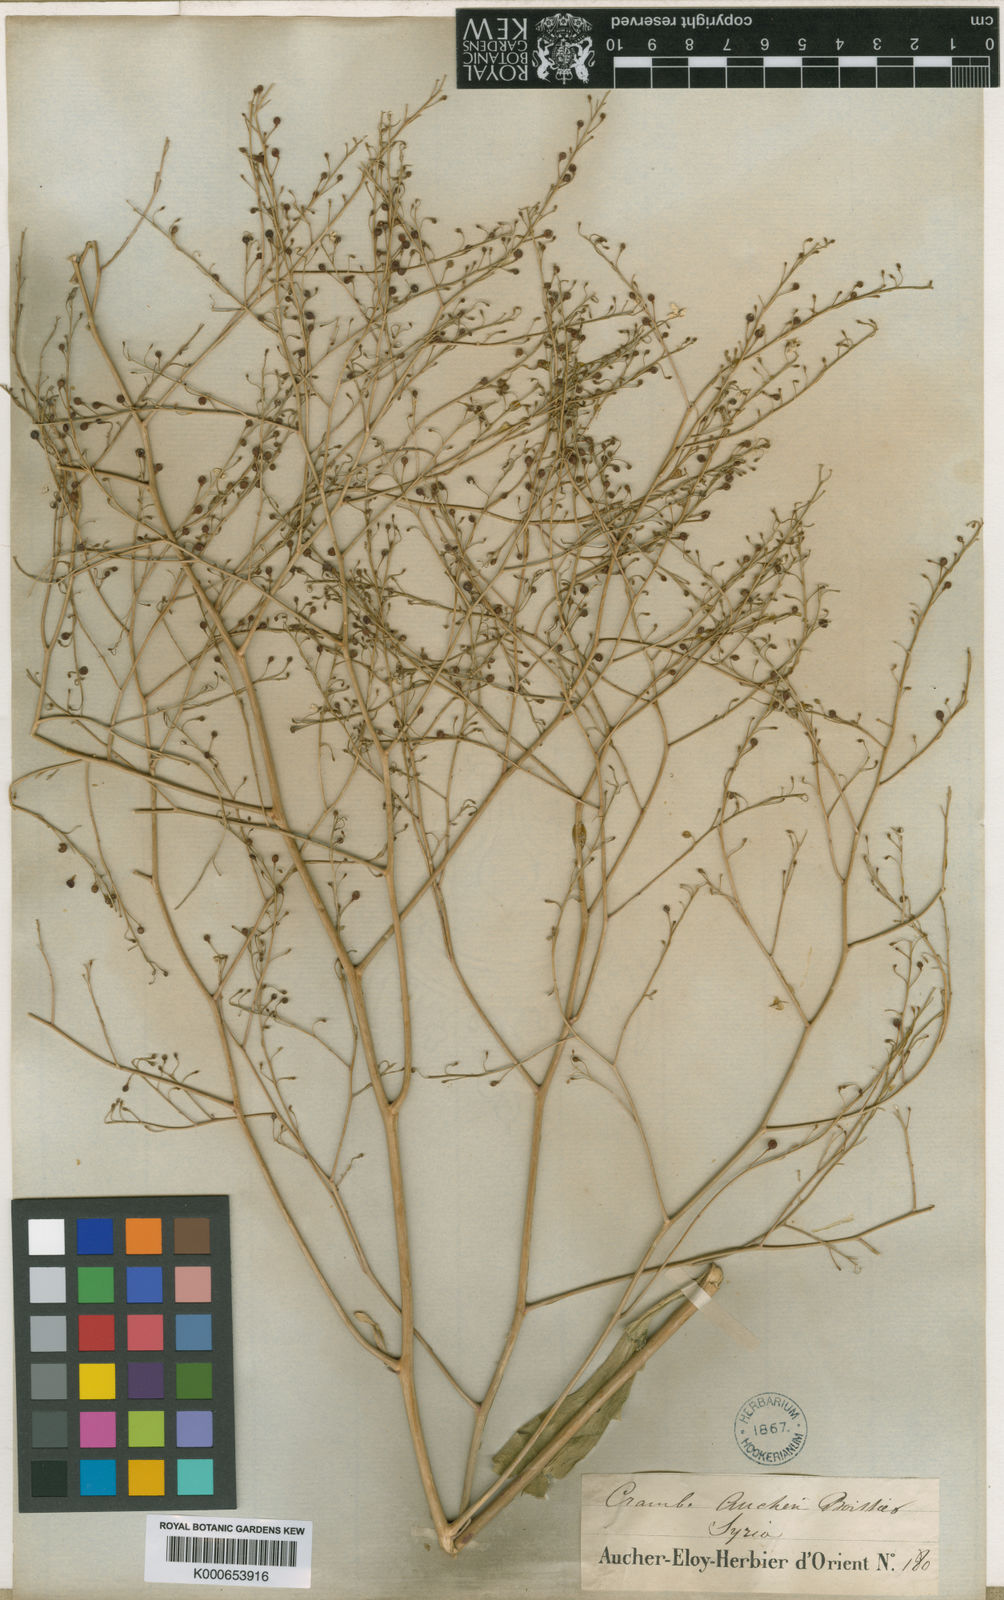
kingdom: Plantae
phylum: Tracheophyta
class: Magnoliopsida
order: Brassicales
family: Brassicaceae
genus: Crambe
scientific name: Crambe orientalis
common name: Oriental sea-kale
